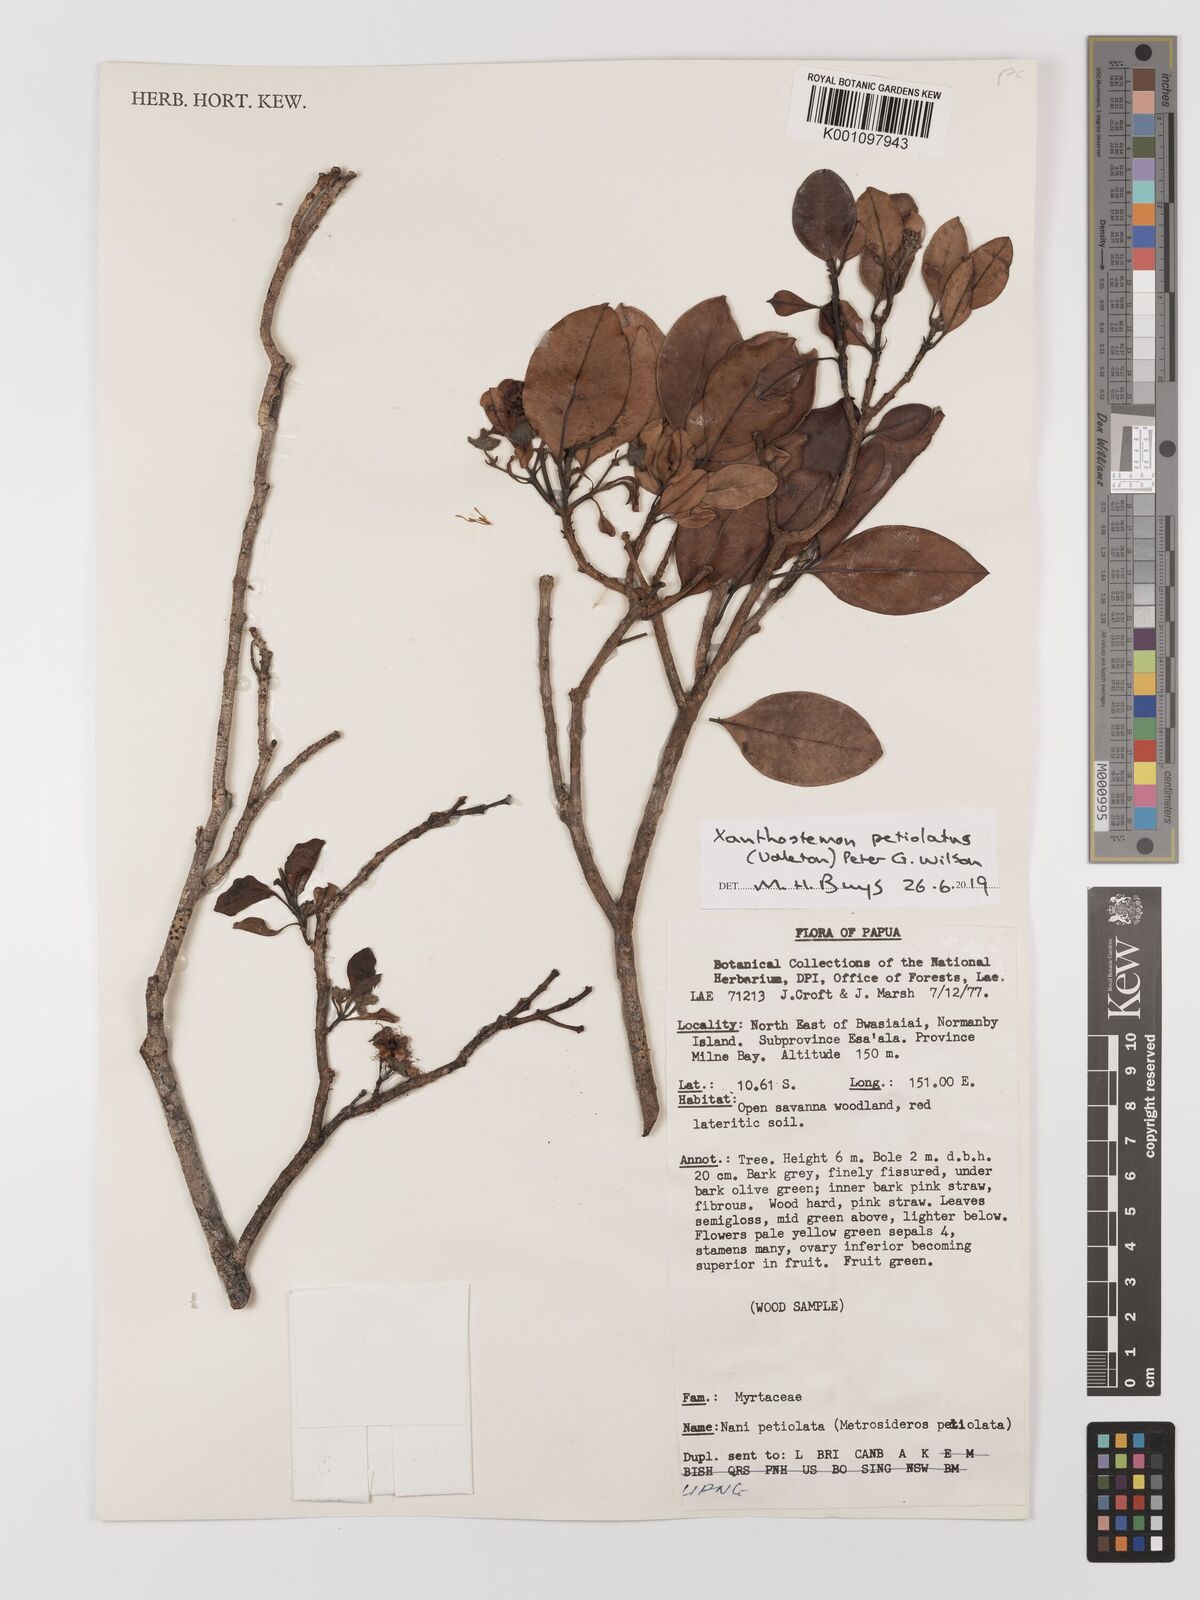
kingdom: Plantae
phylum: Tracheophyta
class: Magnoliopsida
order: Myrtales
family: Myrtaceae
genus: Xanthostemon
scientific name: Xanthostemon petiolatus
